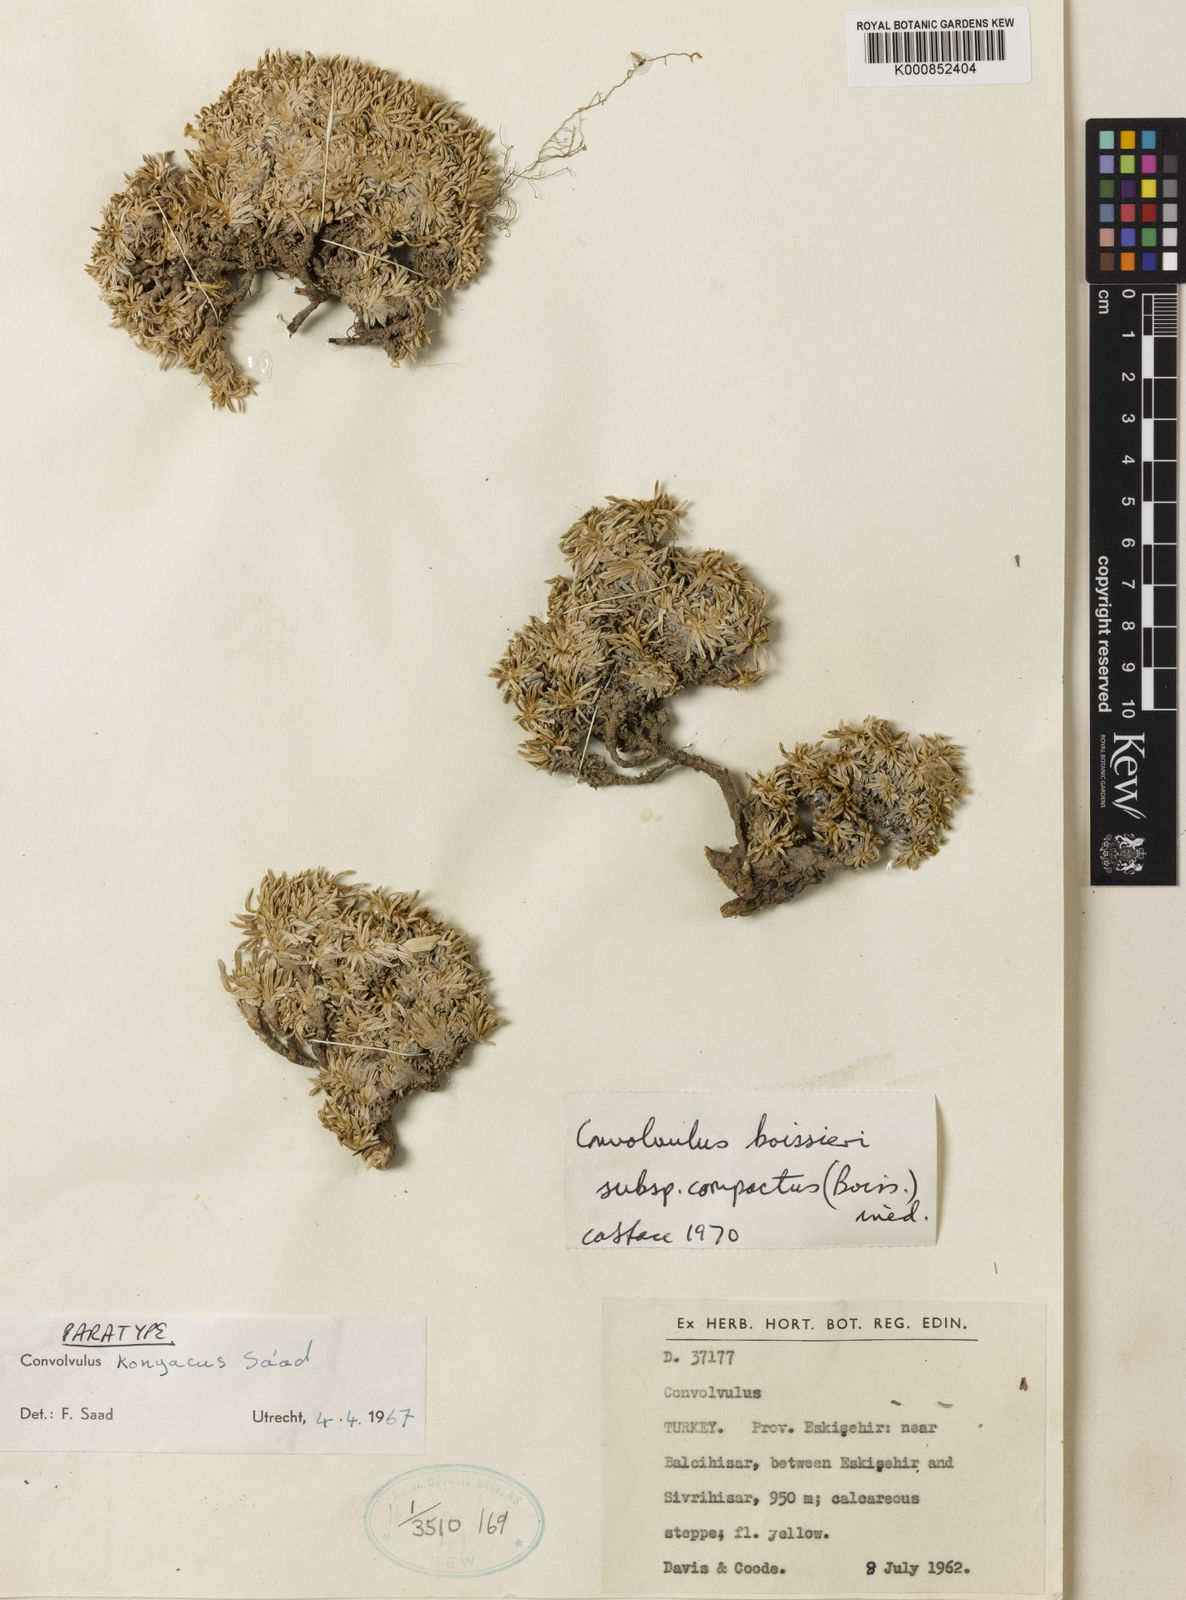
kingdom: Plantae
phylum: Tracheophyta
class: Magnoliopsida
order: Solanales
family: Convolvulaceae
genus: Convolvulus
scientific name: Convolvulus boissieri
